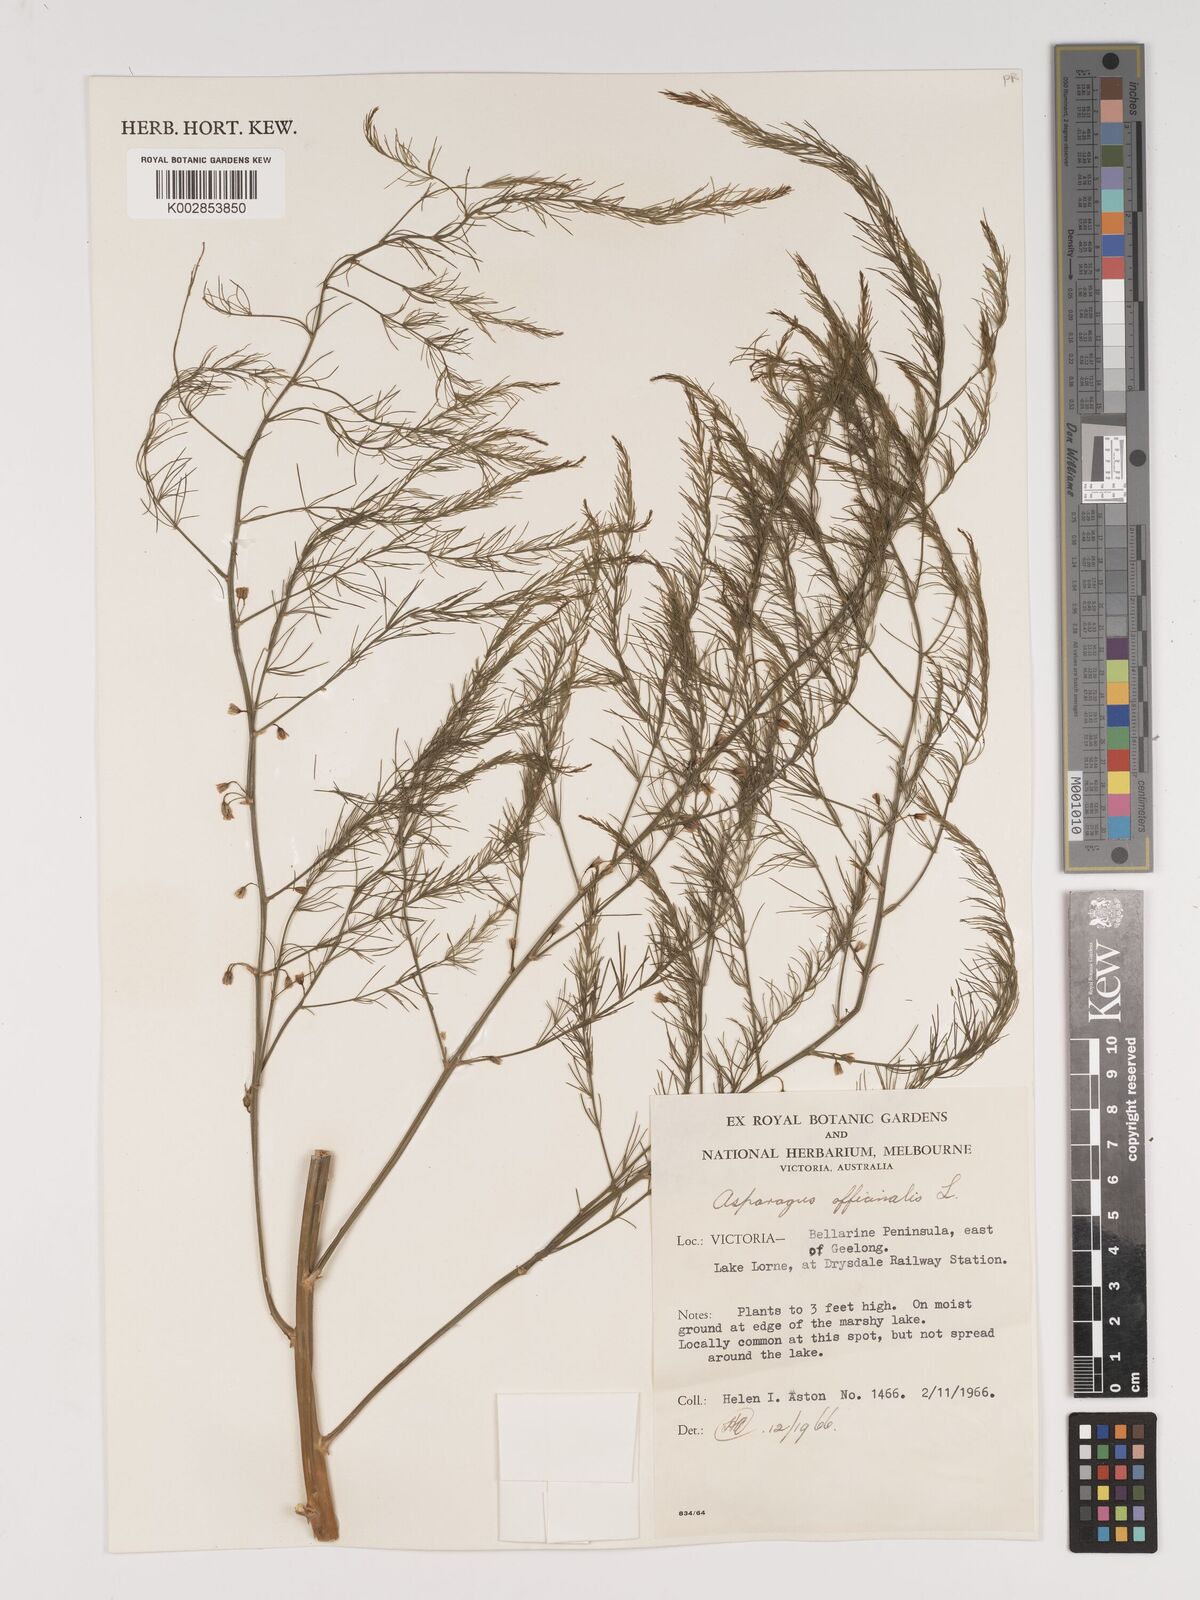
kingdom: Plantae
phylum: Tracheophyta
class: Liliopsida
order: Asparagales
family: Asparagaceae
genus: Asparagus
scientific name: Asparagus officinalis
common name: Garden asparagus
